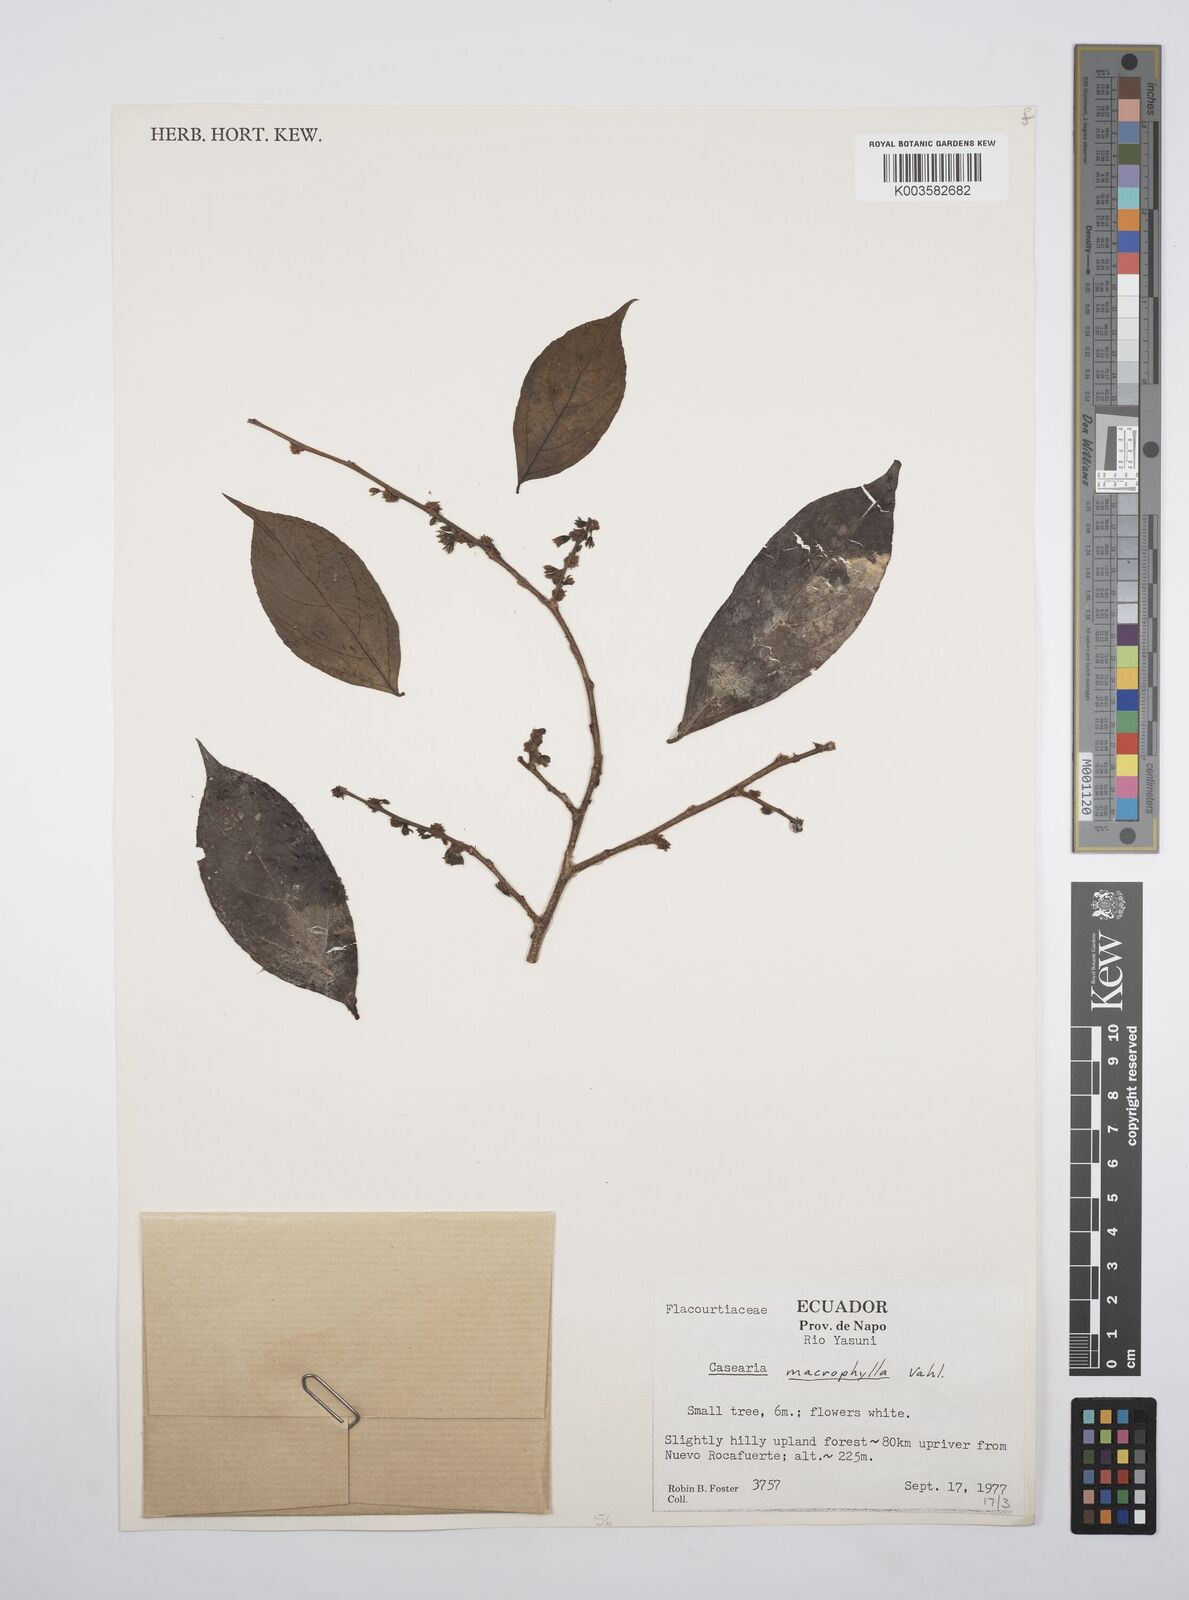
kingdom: Plantae
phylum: Tracheophyta
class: Magnoliopsida
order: Malpighiales
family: Salicaceae
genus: Casearia
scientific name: Casearia pitumba
